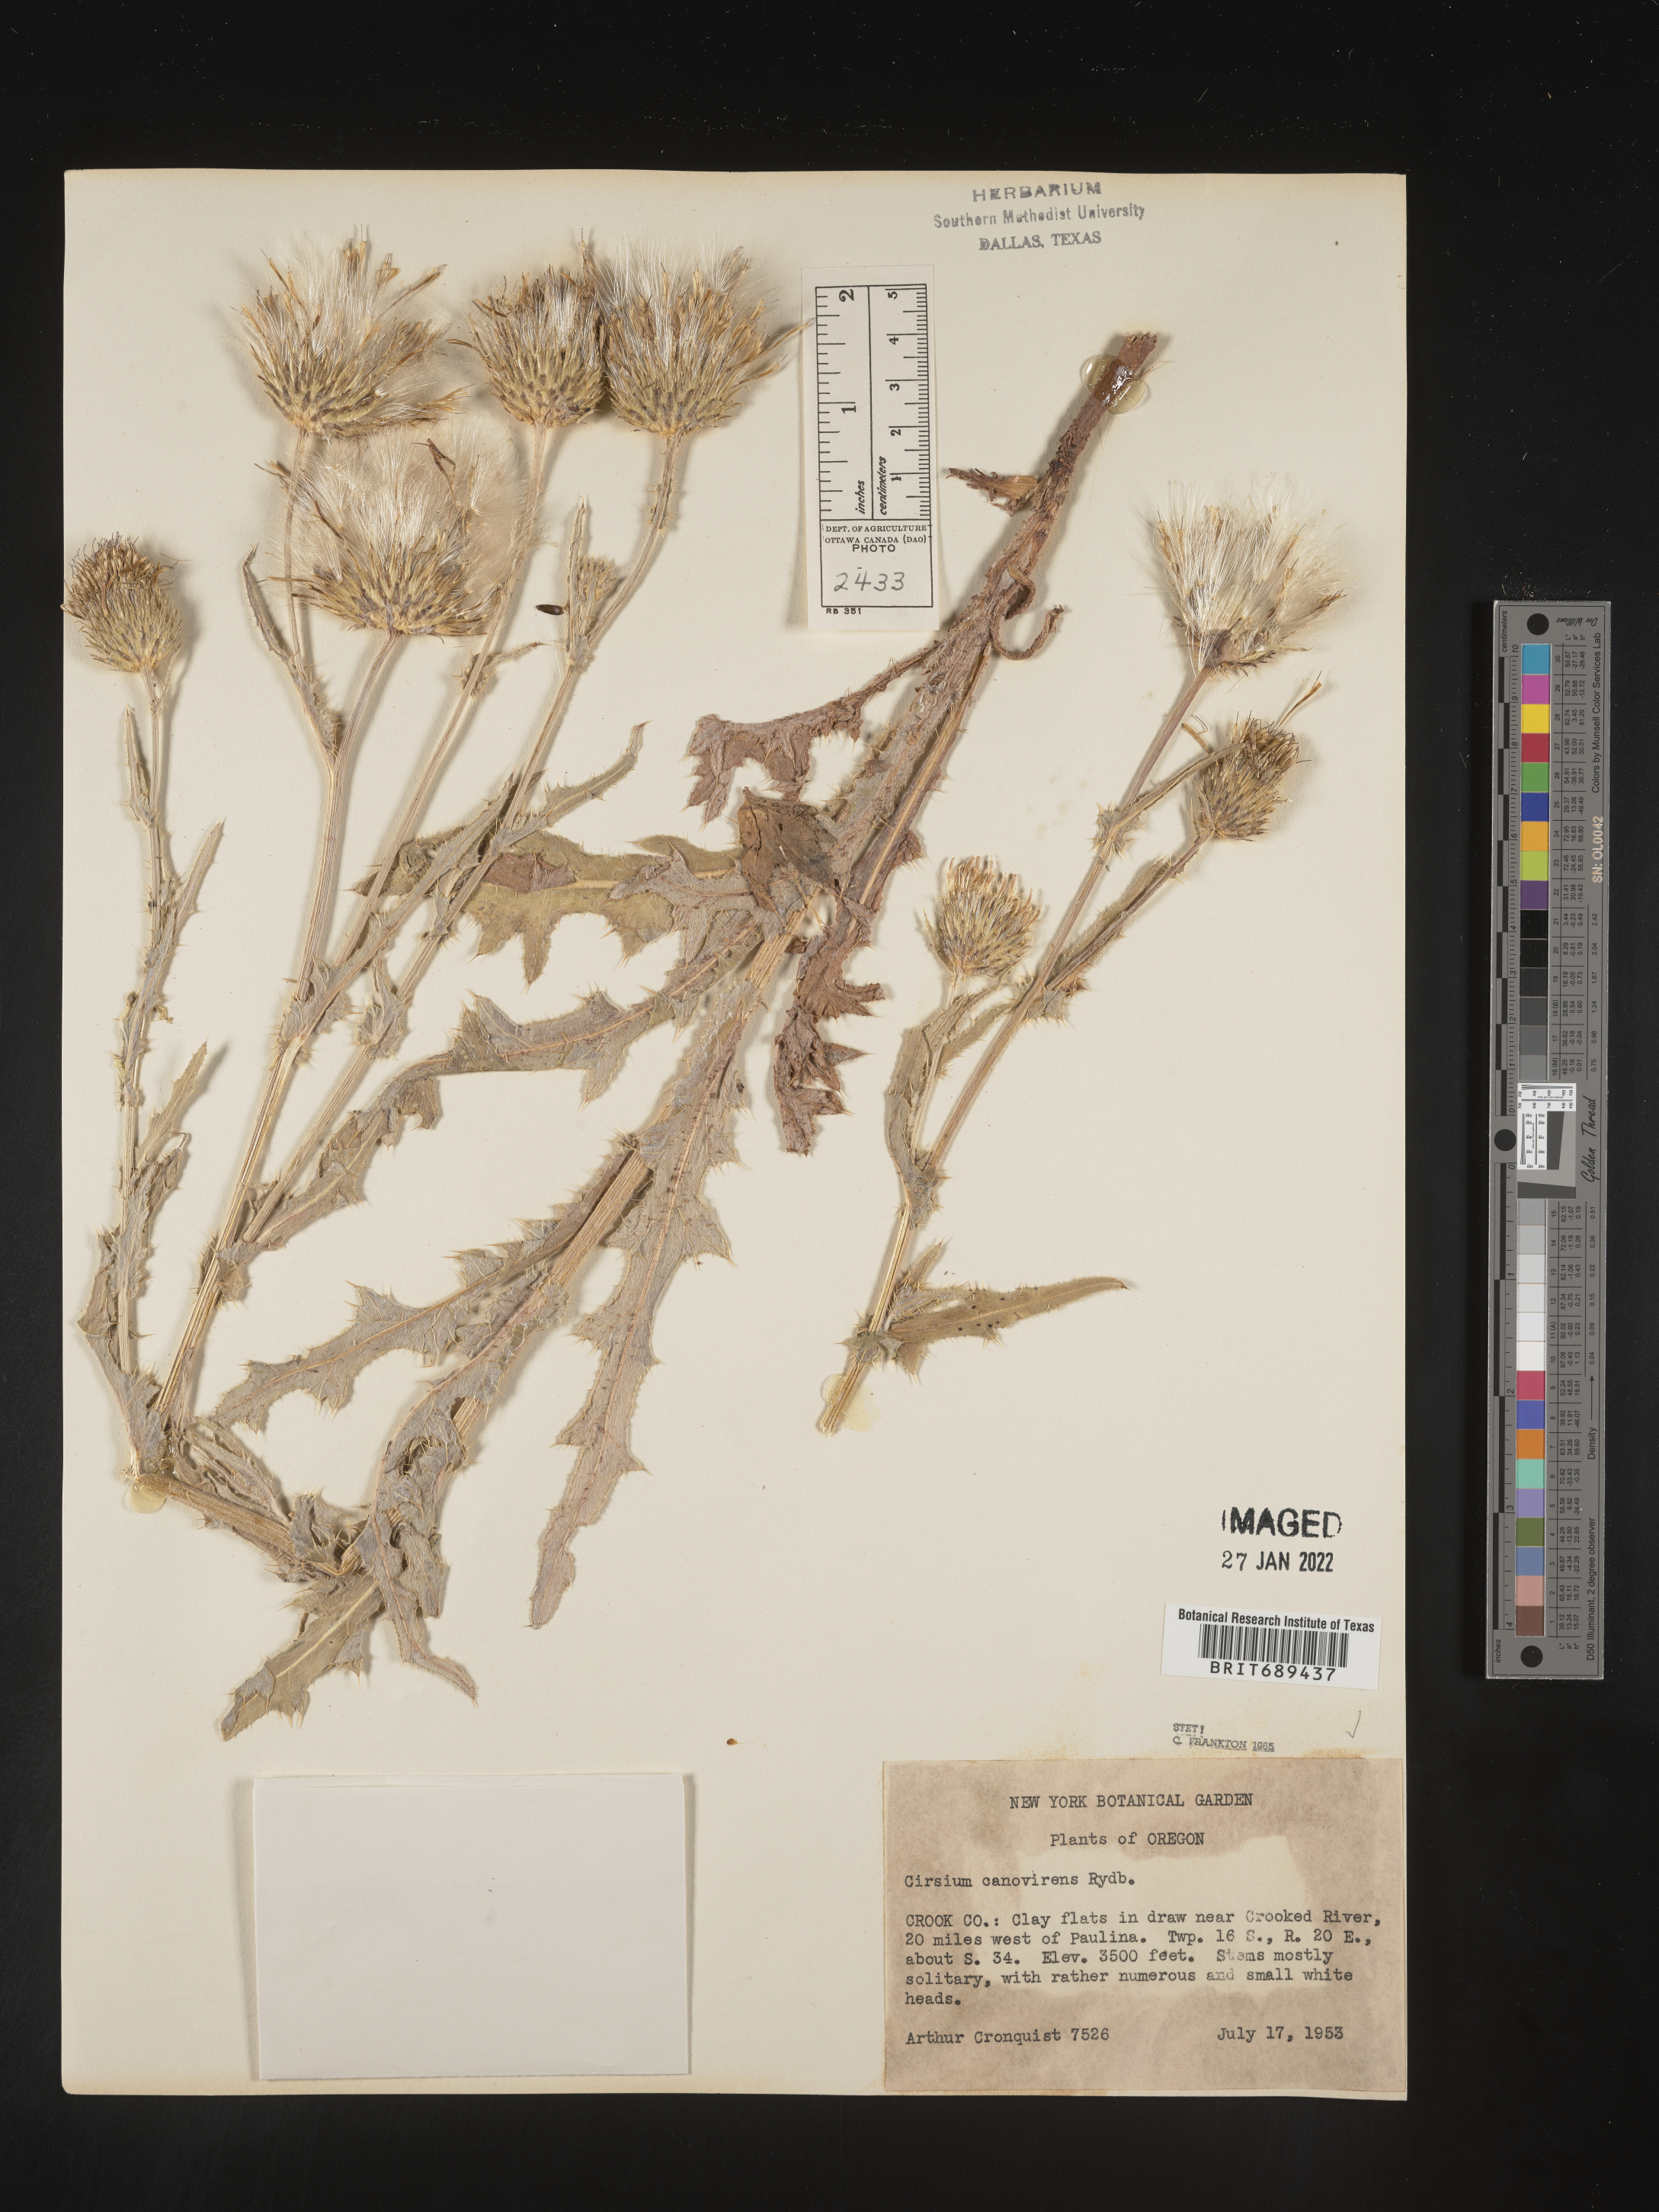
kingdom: Plantae
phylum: Tracheophyta
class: Magnoliopsida
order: Asterales
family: Asteraceae
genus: Cirsium
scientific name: Cirsium cymosum
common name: Peregrine thistle
